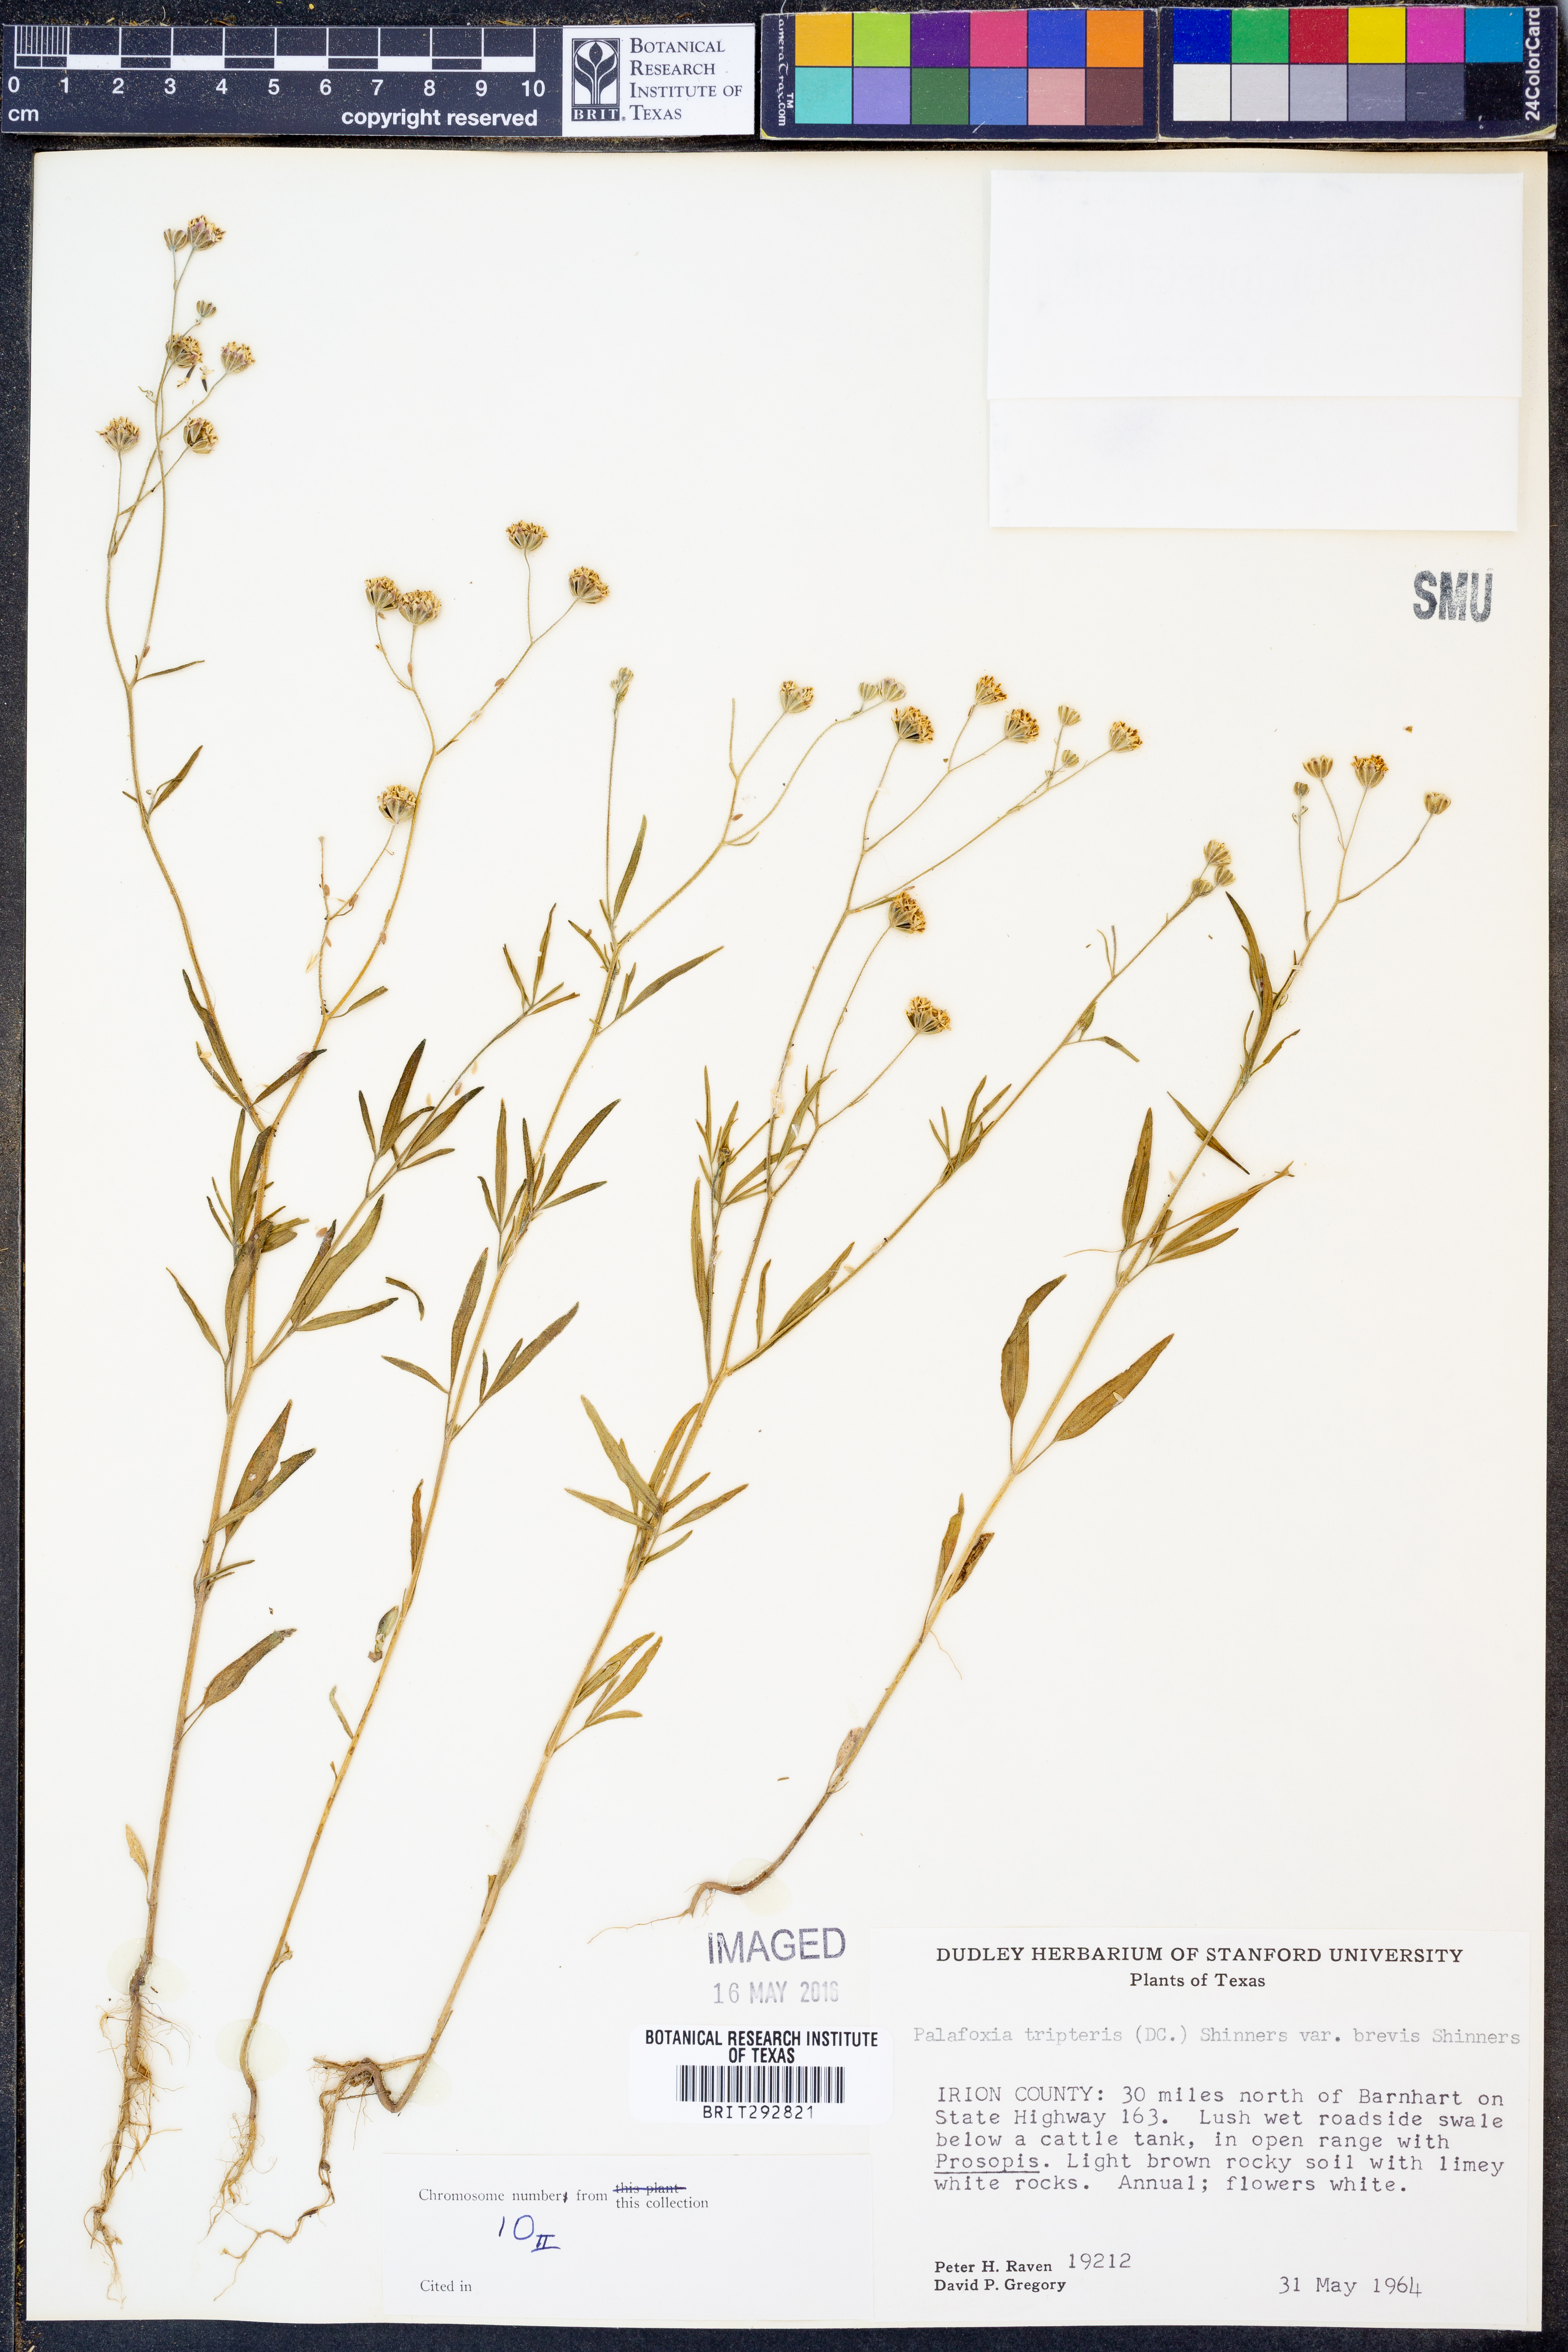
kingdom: Plantae
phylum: Tracheophyta
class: Magnoliopsida
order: Asterales
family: Asteraceae
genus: Florestina
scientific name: Florestina tripteris
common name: Sticky florestina
